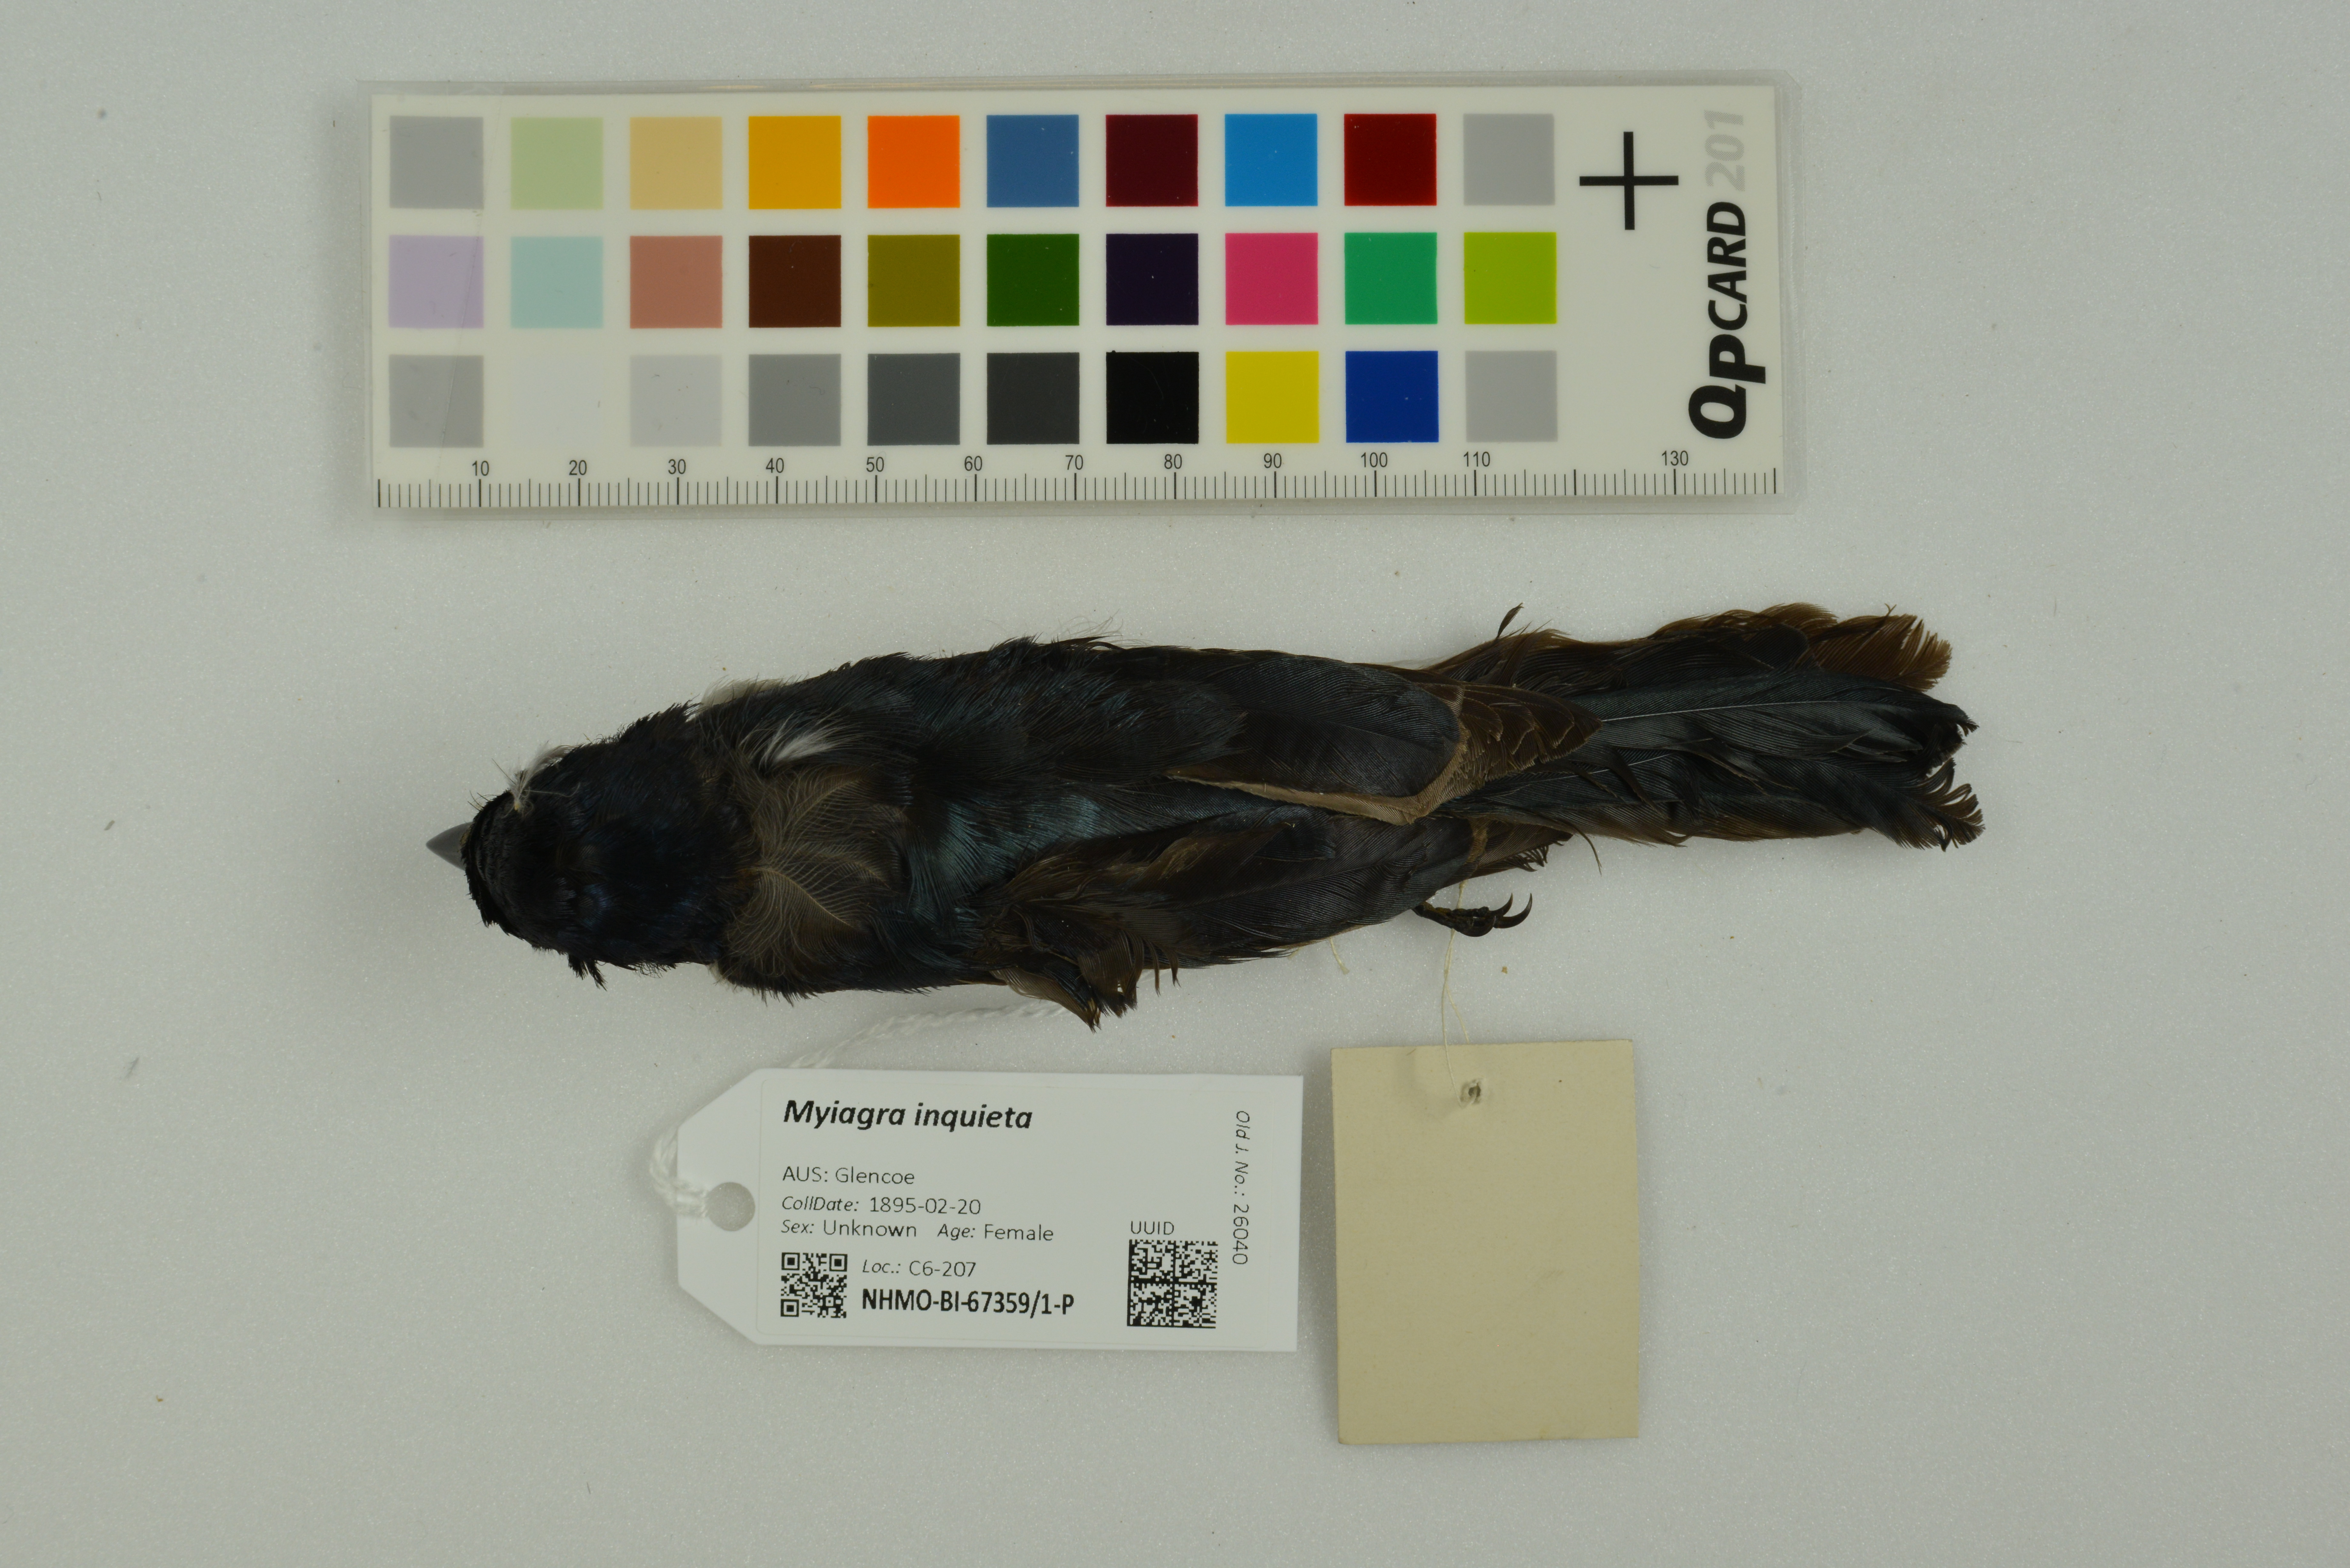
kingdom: Animalia
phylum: Chordata
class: Aves
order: Passeriformes
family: Monarchidae
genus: Myiagra
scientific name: Myiagra inquieta
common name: Restless flycatcher
